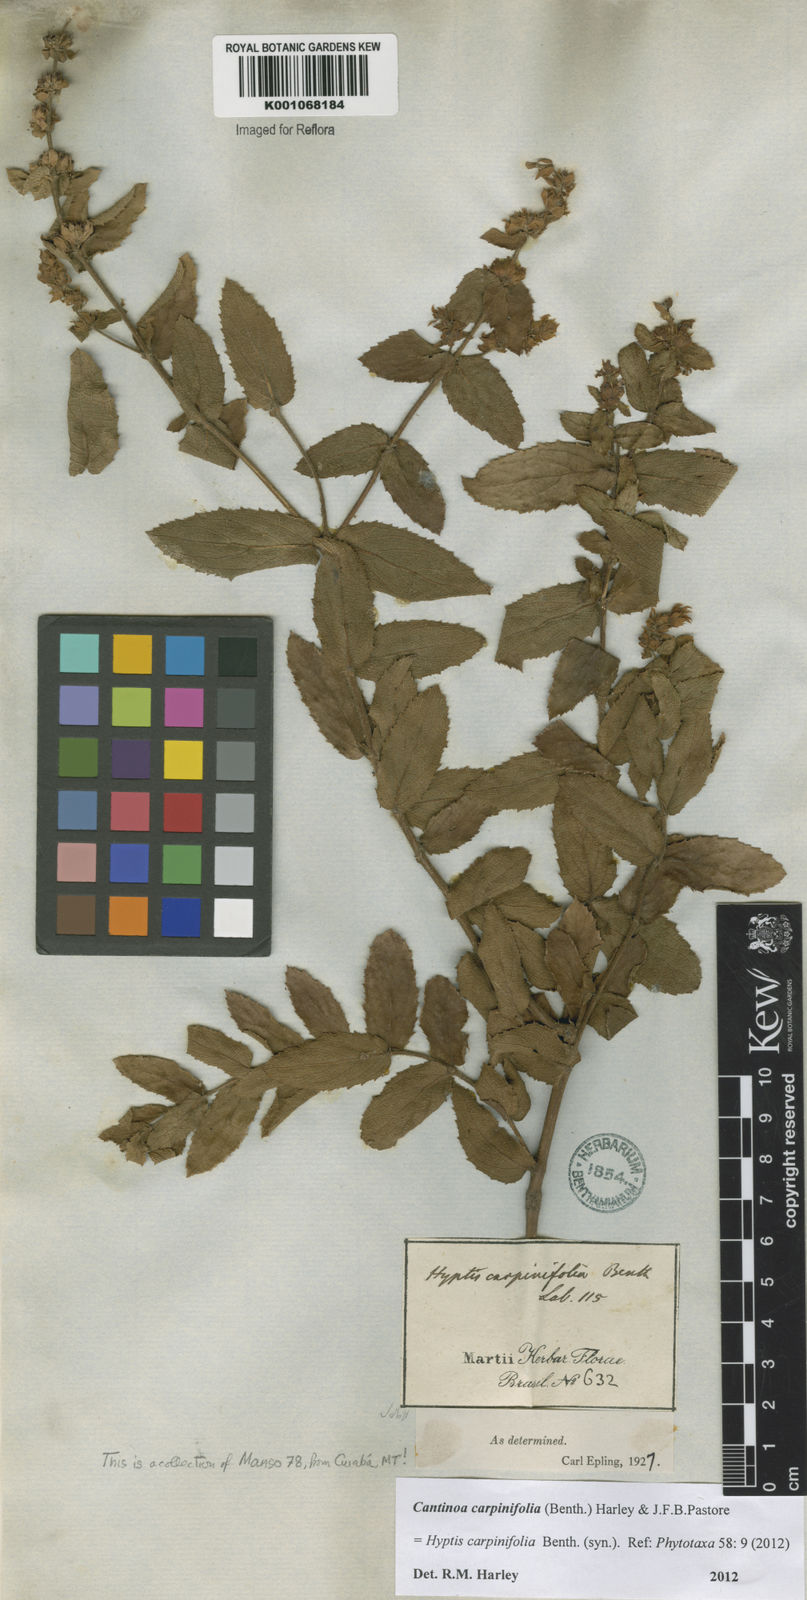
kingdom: Plantae
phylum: Tracheophyta
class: Magnoliopsida
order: Lamiales
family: Lamiaceae
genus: Cantinoa
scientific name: Cantinoa carpinifolia
